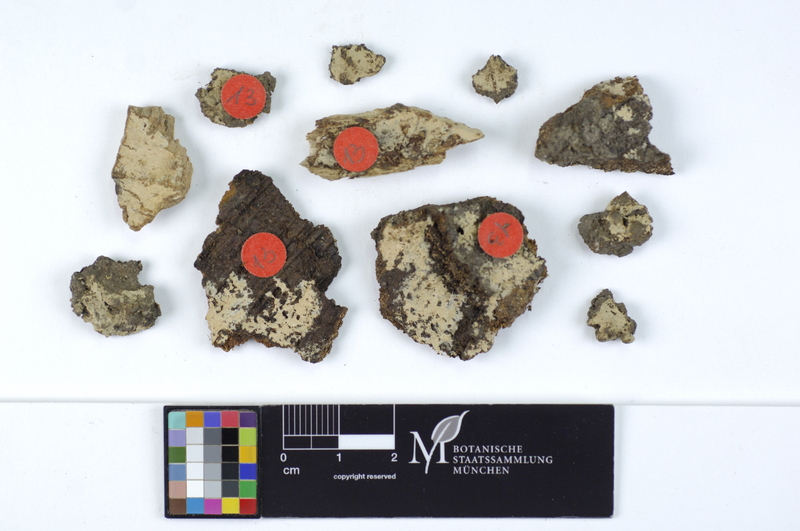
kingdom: Plantae
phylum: Tracheophyta
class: Magnoliopsida
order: Fagales
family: Fagaceae
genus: Fagus
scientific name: Fagus sylvatica
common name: Beech
